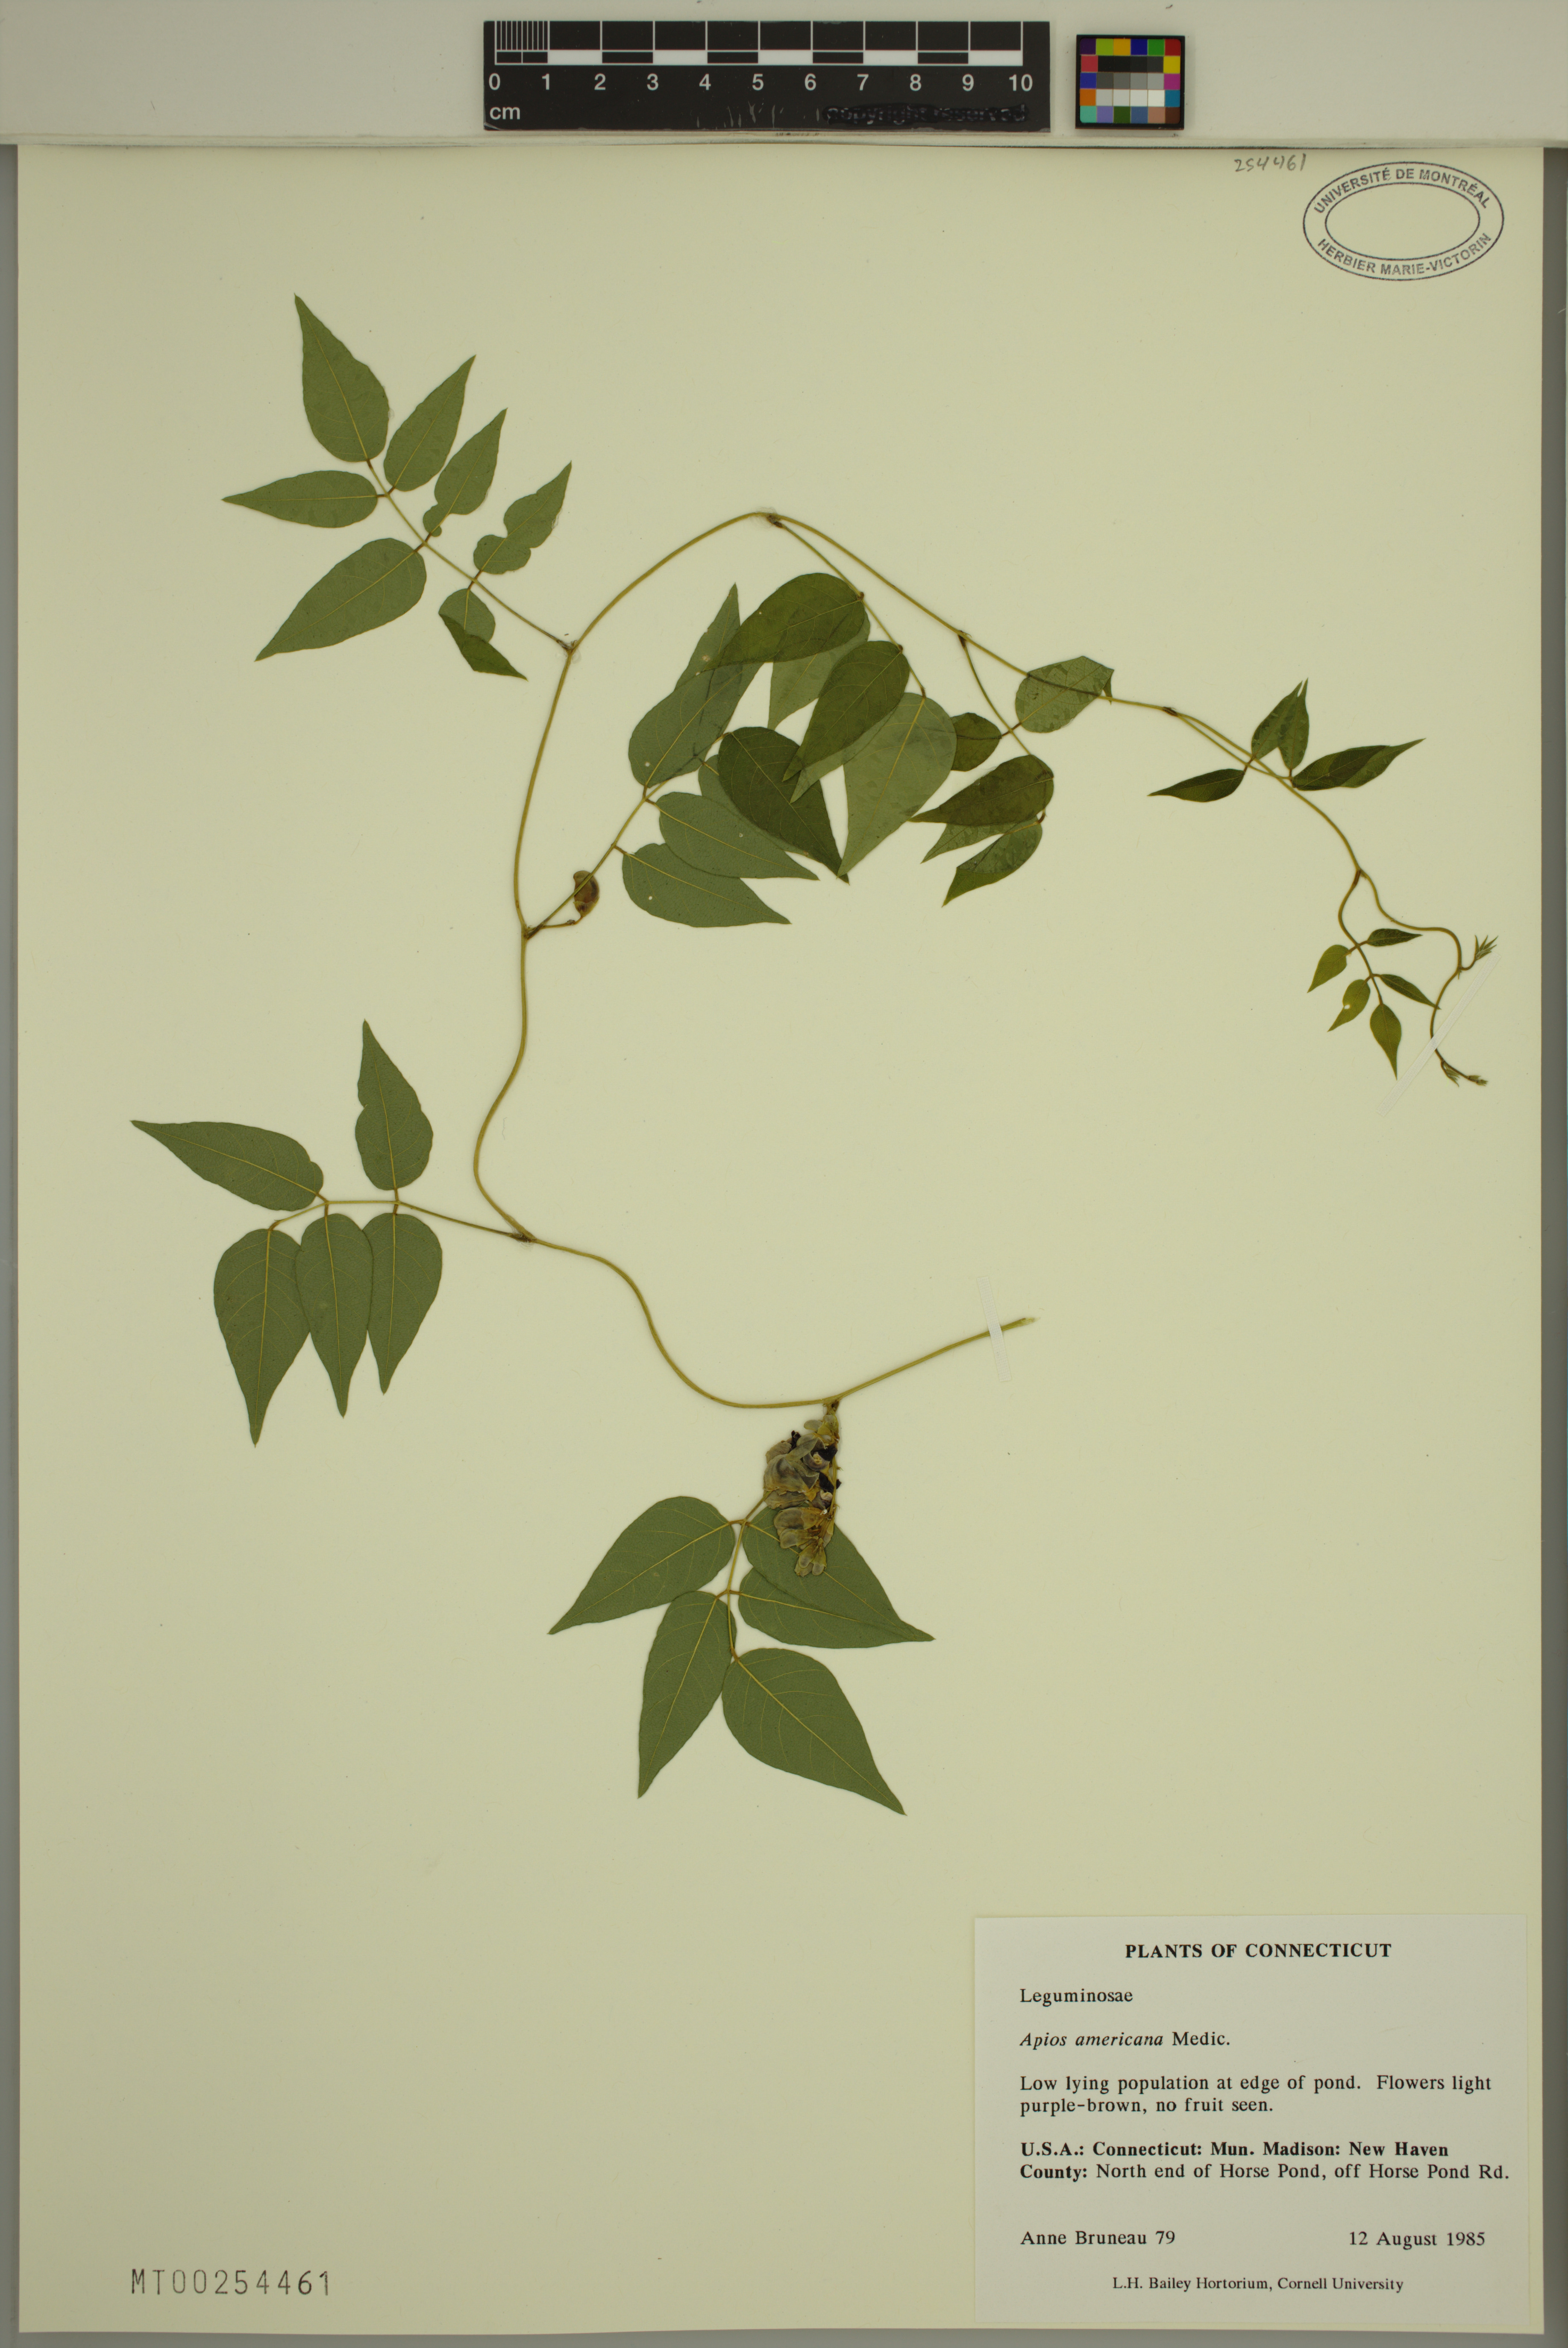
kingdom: Plantae
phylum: Tracheophyta
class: Magnoliopsida
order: Fabales
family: Fabaceae
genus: Apios
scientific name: Apios americana
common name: American potato-bean
